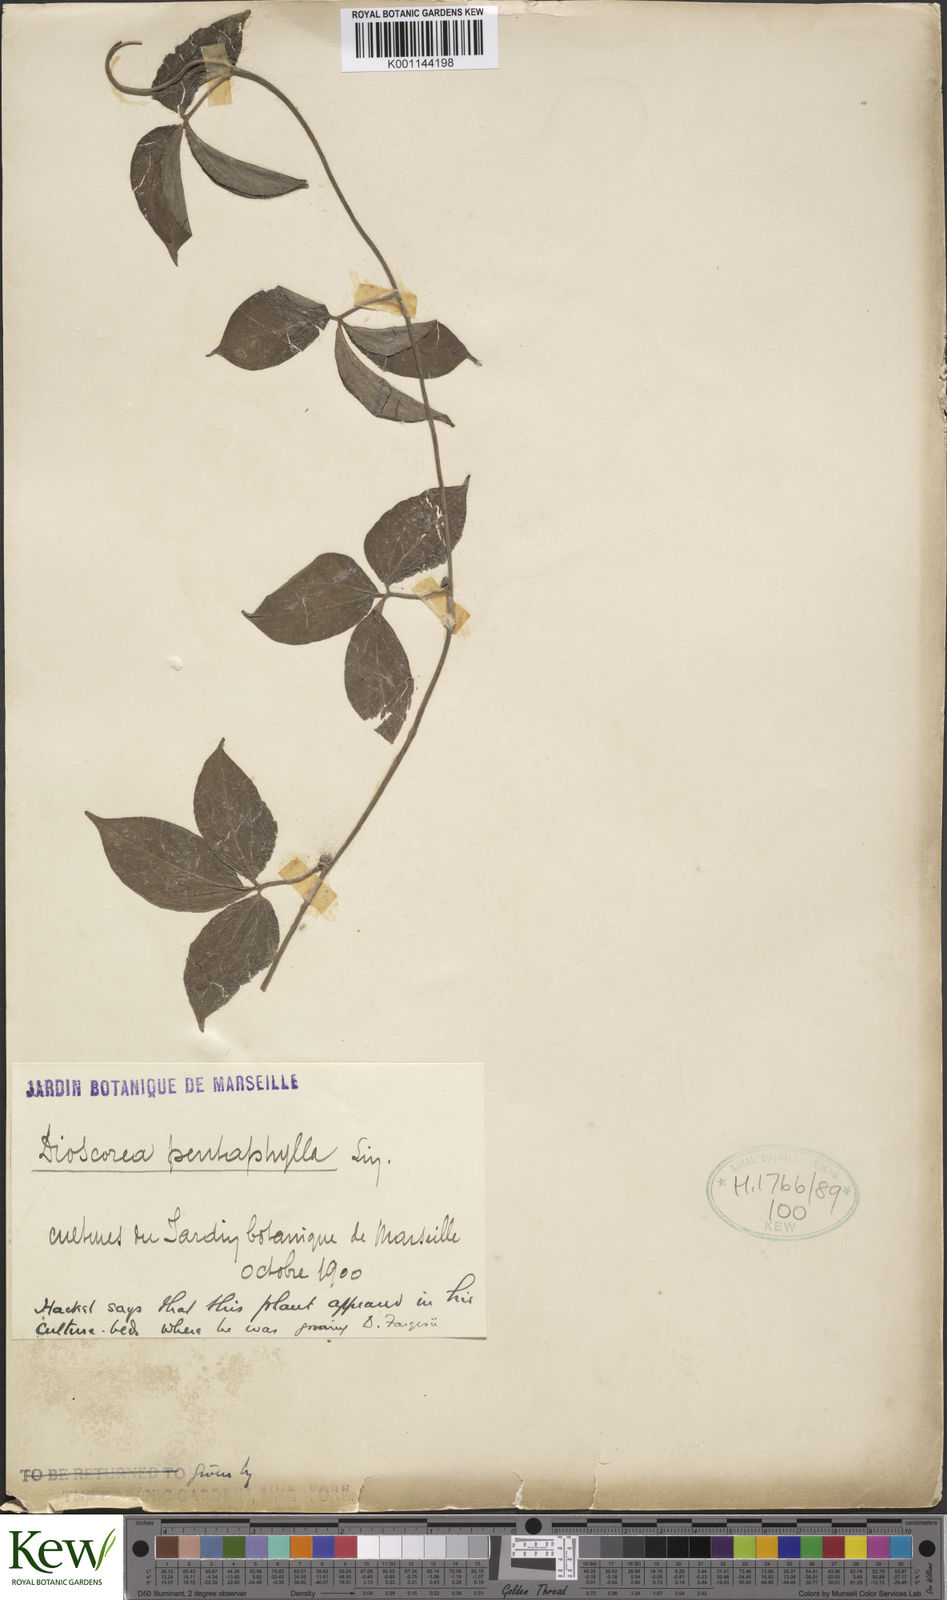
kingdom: Plantae
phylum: Tracheophyta
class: Liliopsida
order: Dioscoreales
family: Dioscoreaceae
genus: Dioscorea
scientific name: Dioscorea
